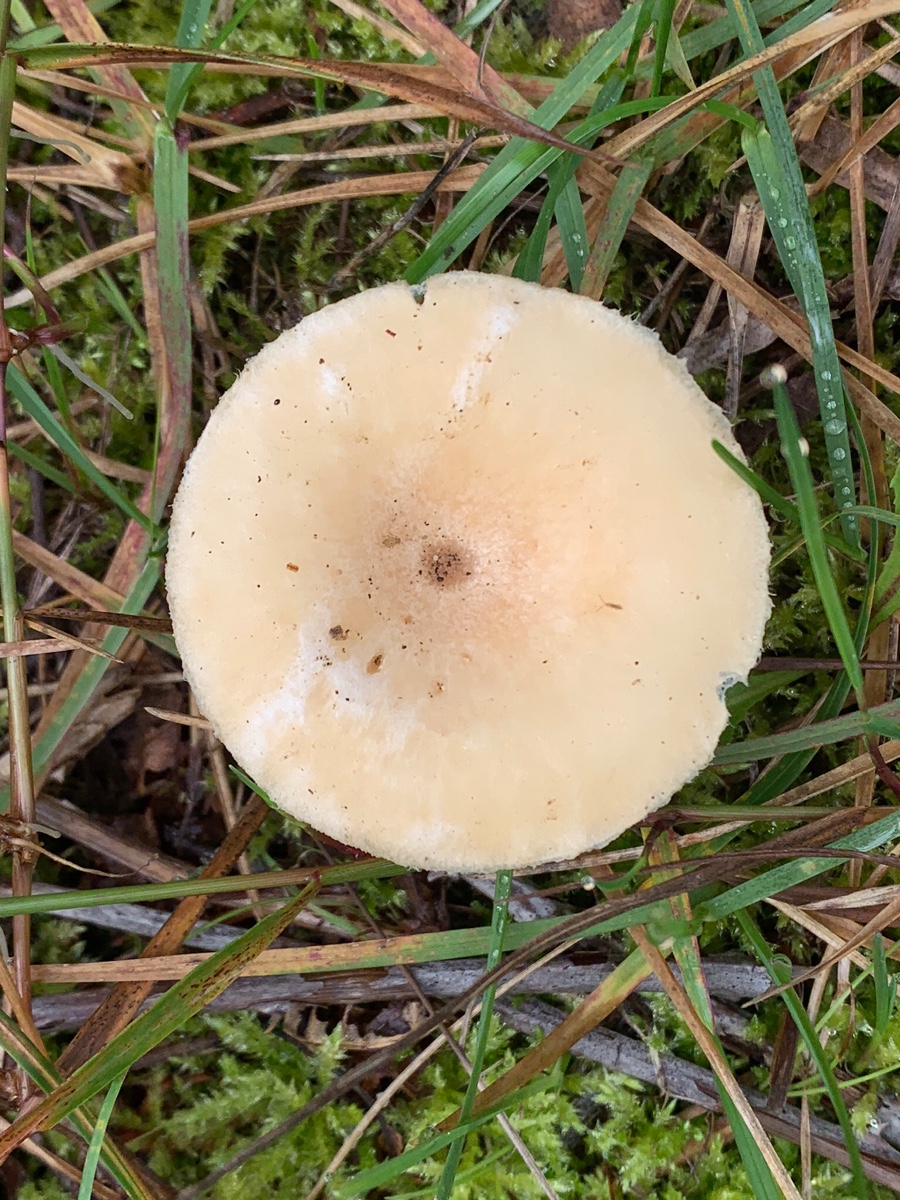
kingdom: Fungi
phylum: Basidiomycota
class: Agaricomycetes
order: Russulales
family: Russulaceae
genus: Lactarius
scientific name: Lactarius pubescens
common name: dunet mælkehat
